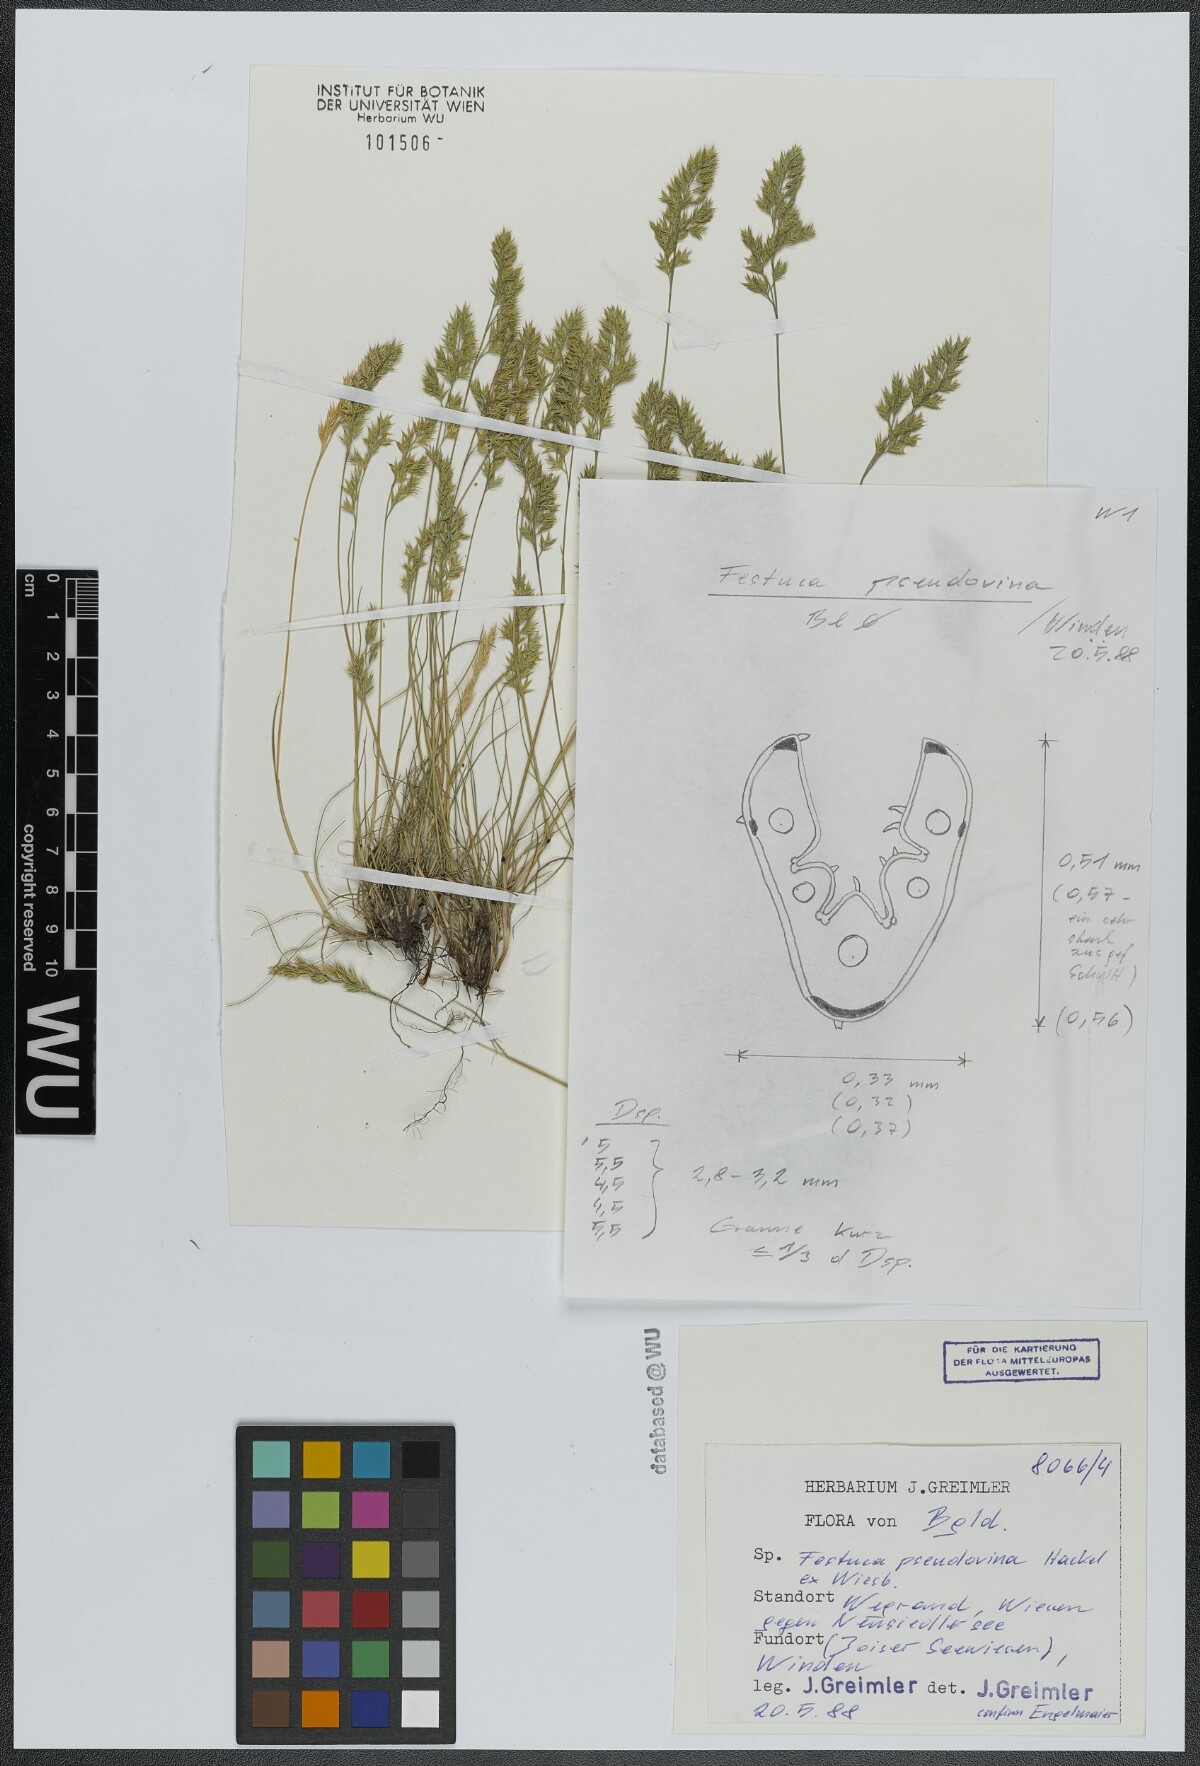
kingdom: Plantae
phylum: Tracheophyta
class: Liliopsida
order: Poales
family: Poaceae
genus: Festuca
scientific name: Festuca pulchra
